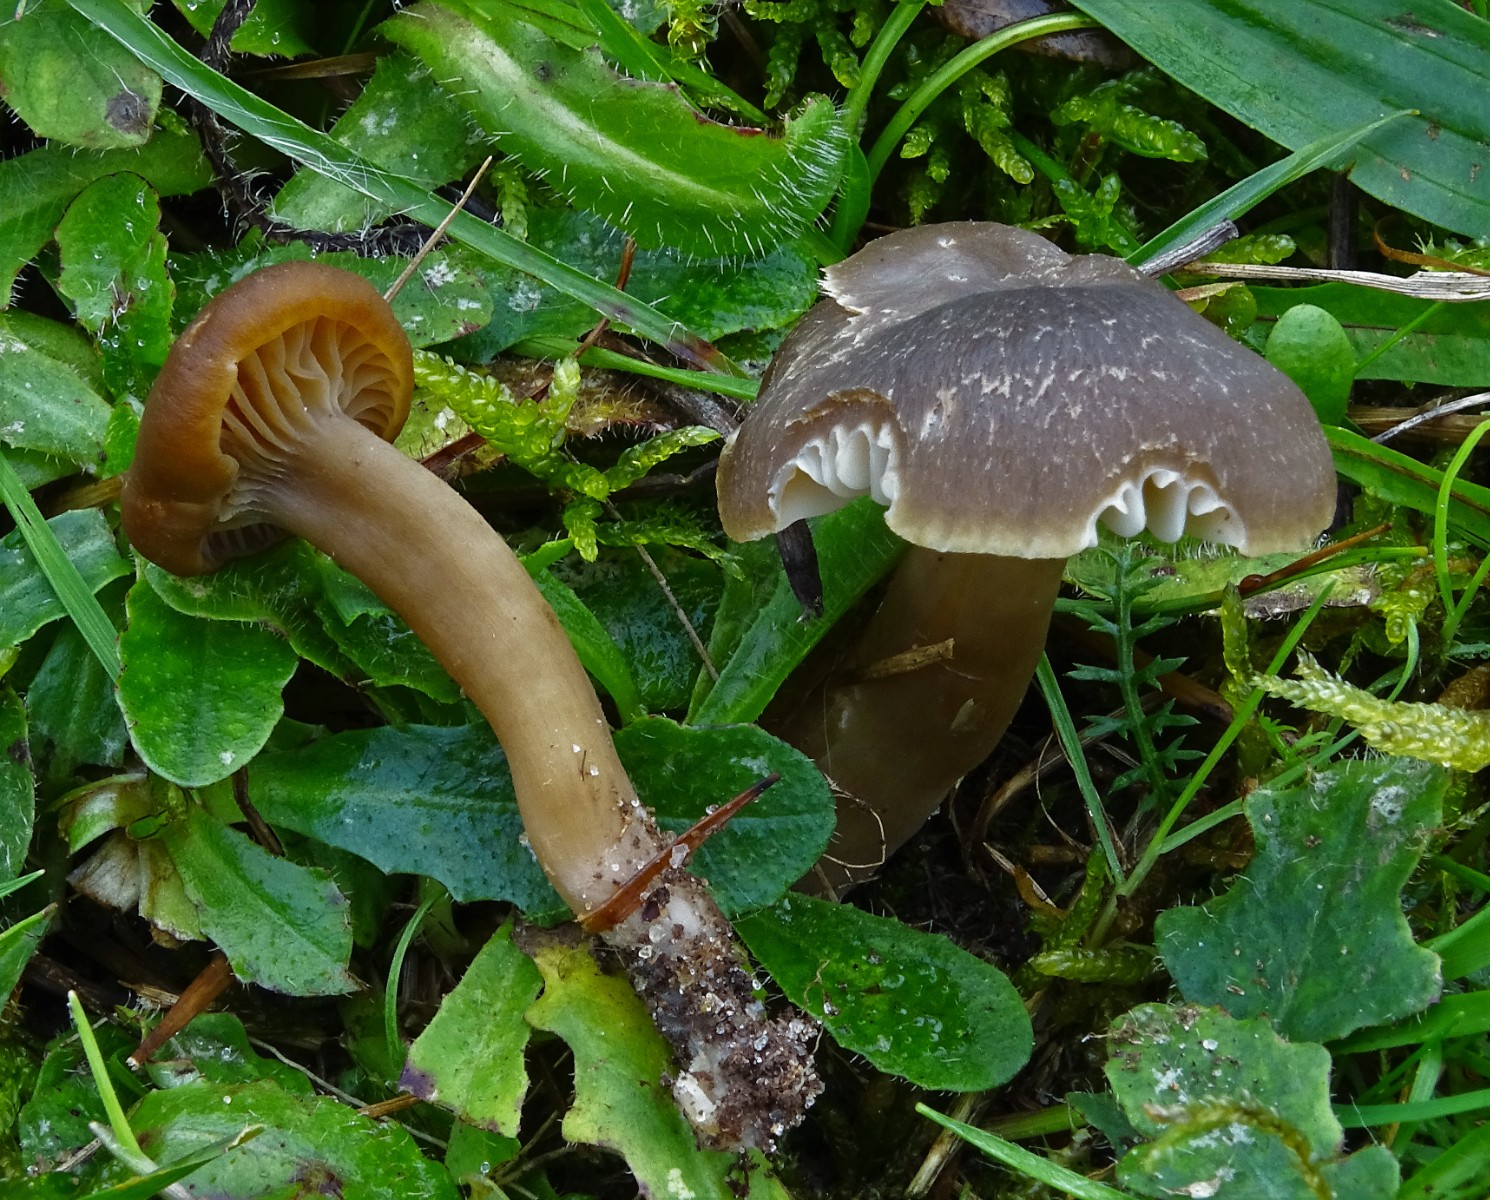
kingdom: Fungi
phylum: Basidiomycota
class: Agaricomycetes
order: Agaricales
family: Hygrophoraceae
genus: Neohygrocybe
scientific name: Neohygrocybe nitrata
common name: stinkende vokshat
